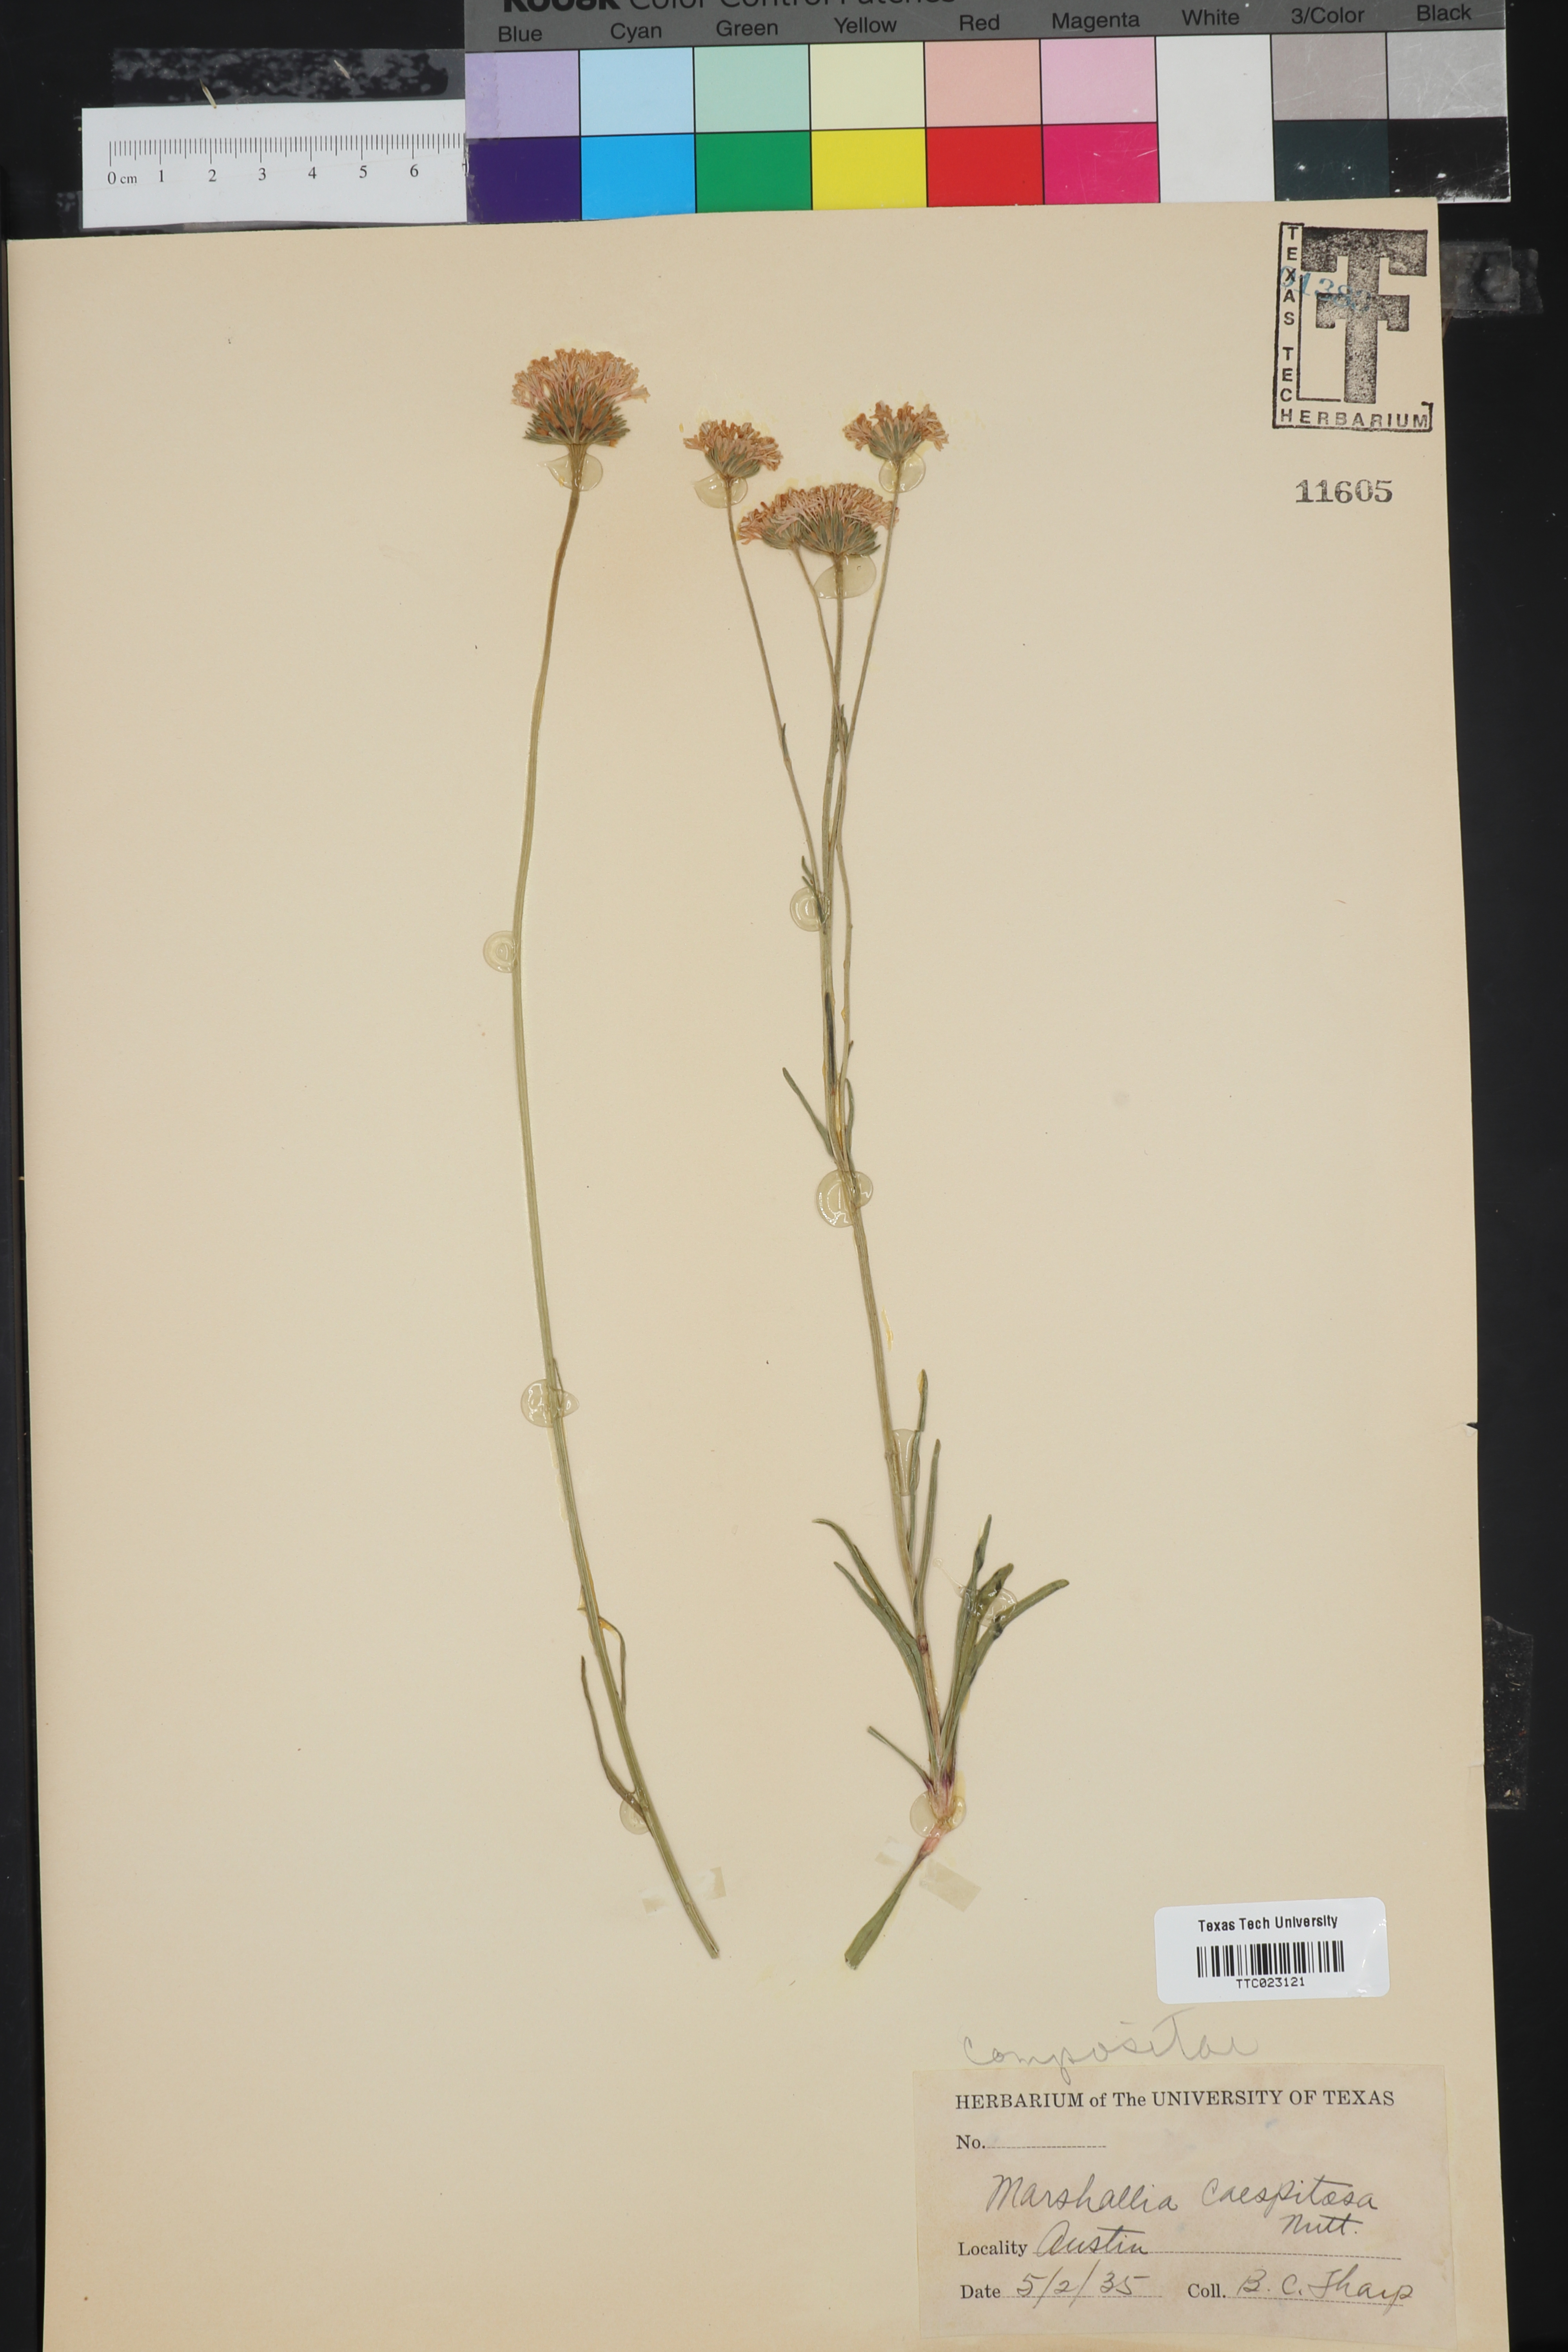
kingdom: Plantae
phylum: Tracheophyta
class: Magnoliopsida
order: Asterales
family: Asteraceae
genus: Marshallia
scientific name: Marshallia caespitosa
